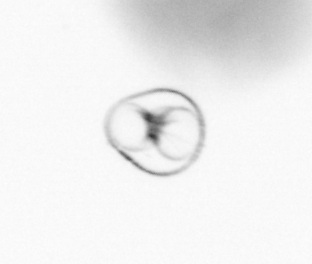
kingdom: Chromista
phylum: Myzozoa
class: Dinophyceae
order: Noctilucales
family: Noctilucaceae
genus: Noctiluca
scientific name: Noctiluca scintillans
